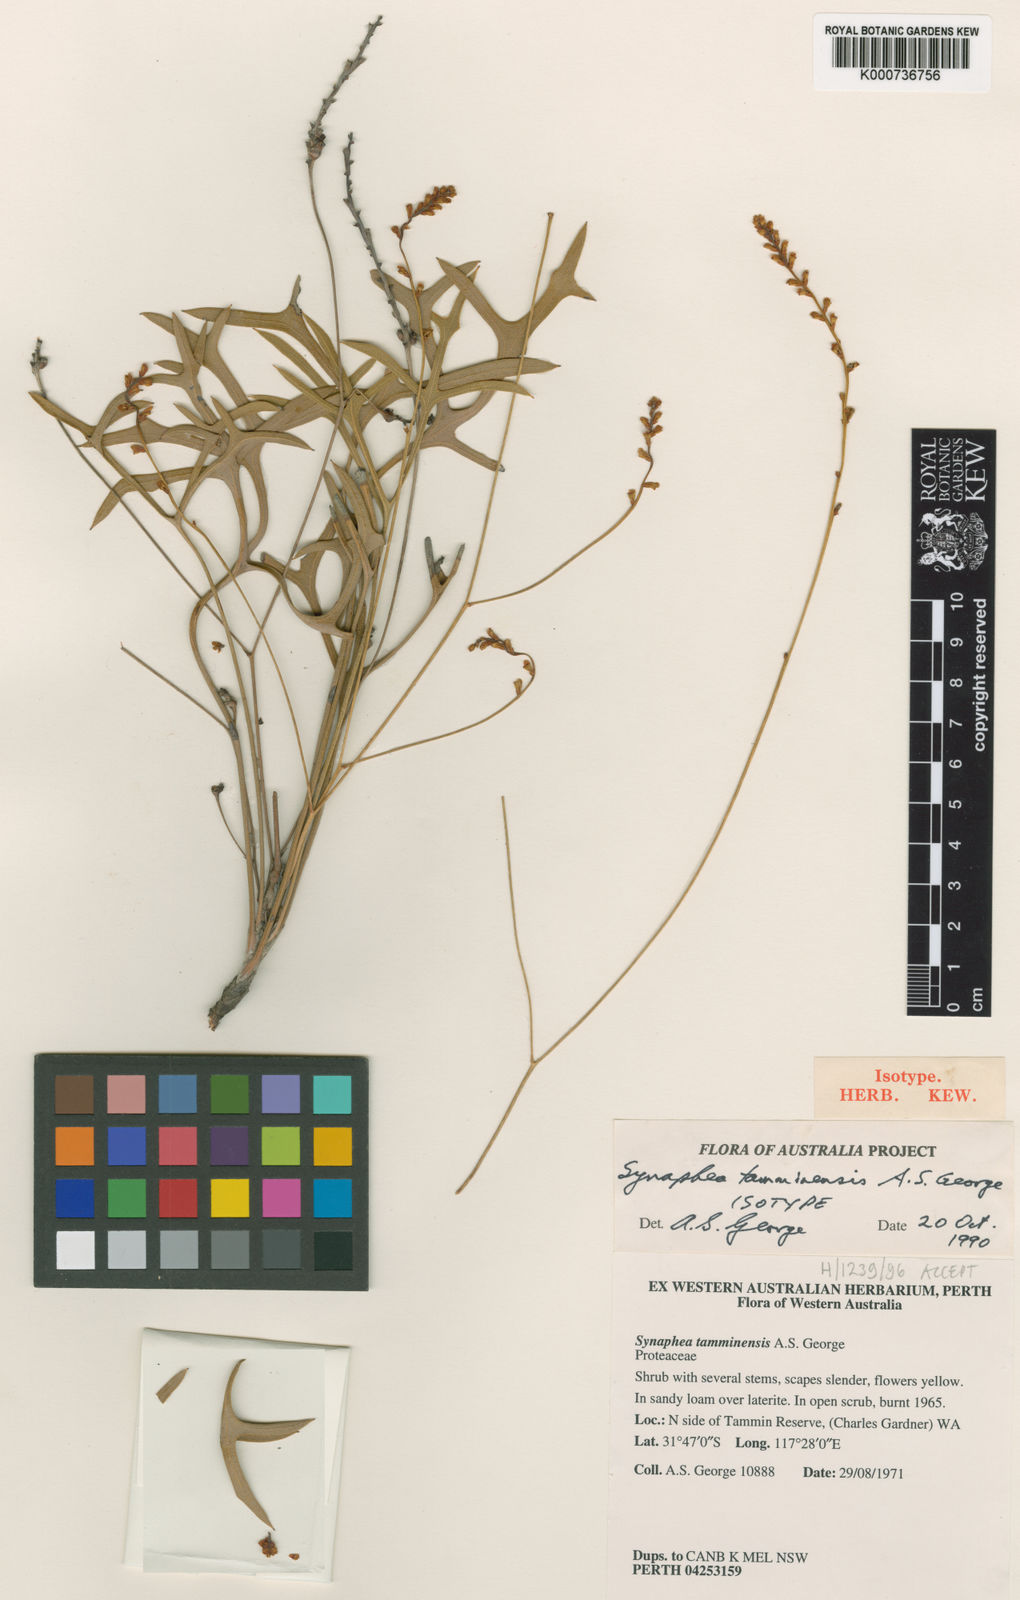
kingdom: Plantae
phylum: Tracheophyta
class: Magnoliopsida
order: Proteales
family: Proteaceae
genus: Synaphea
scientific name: Synaphea tamminensis
